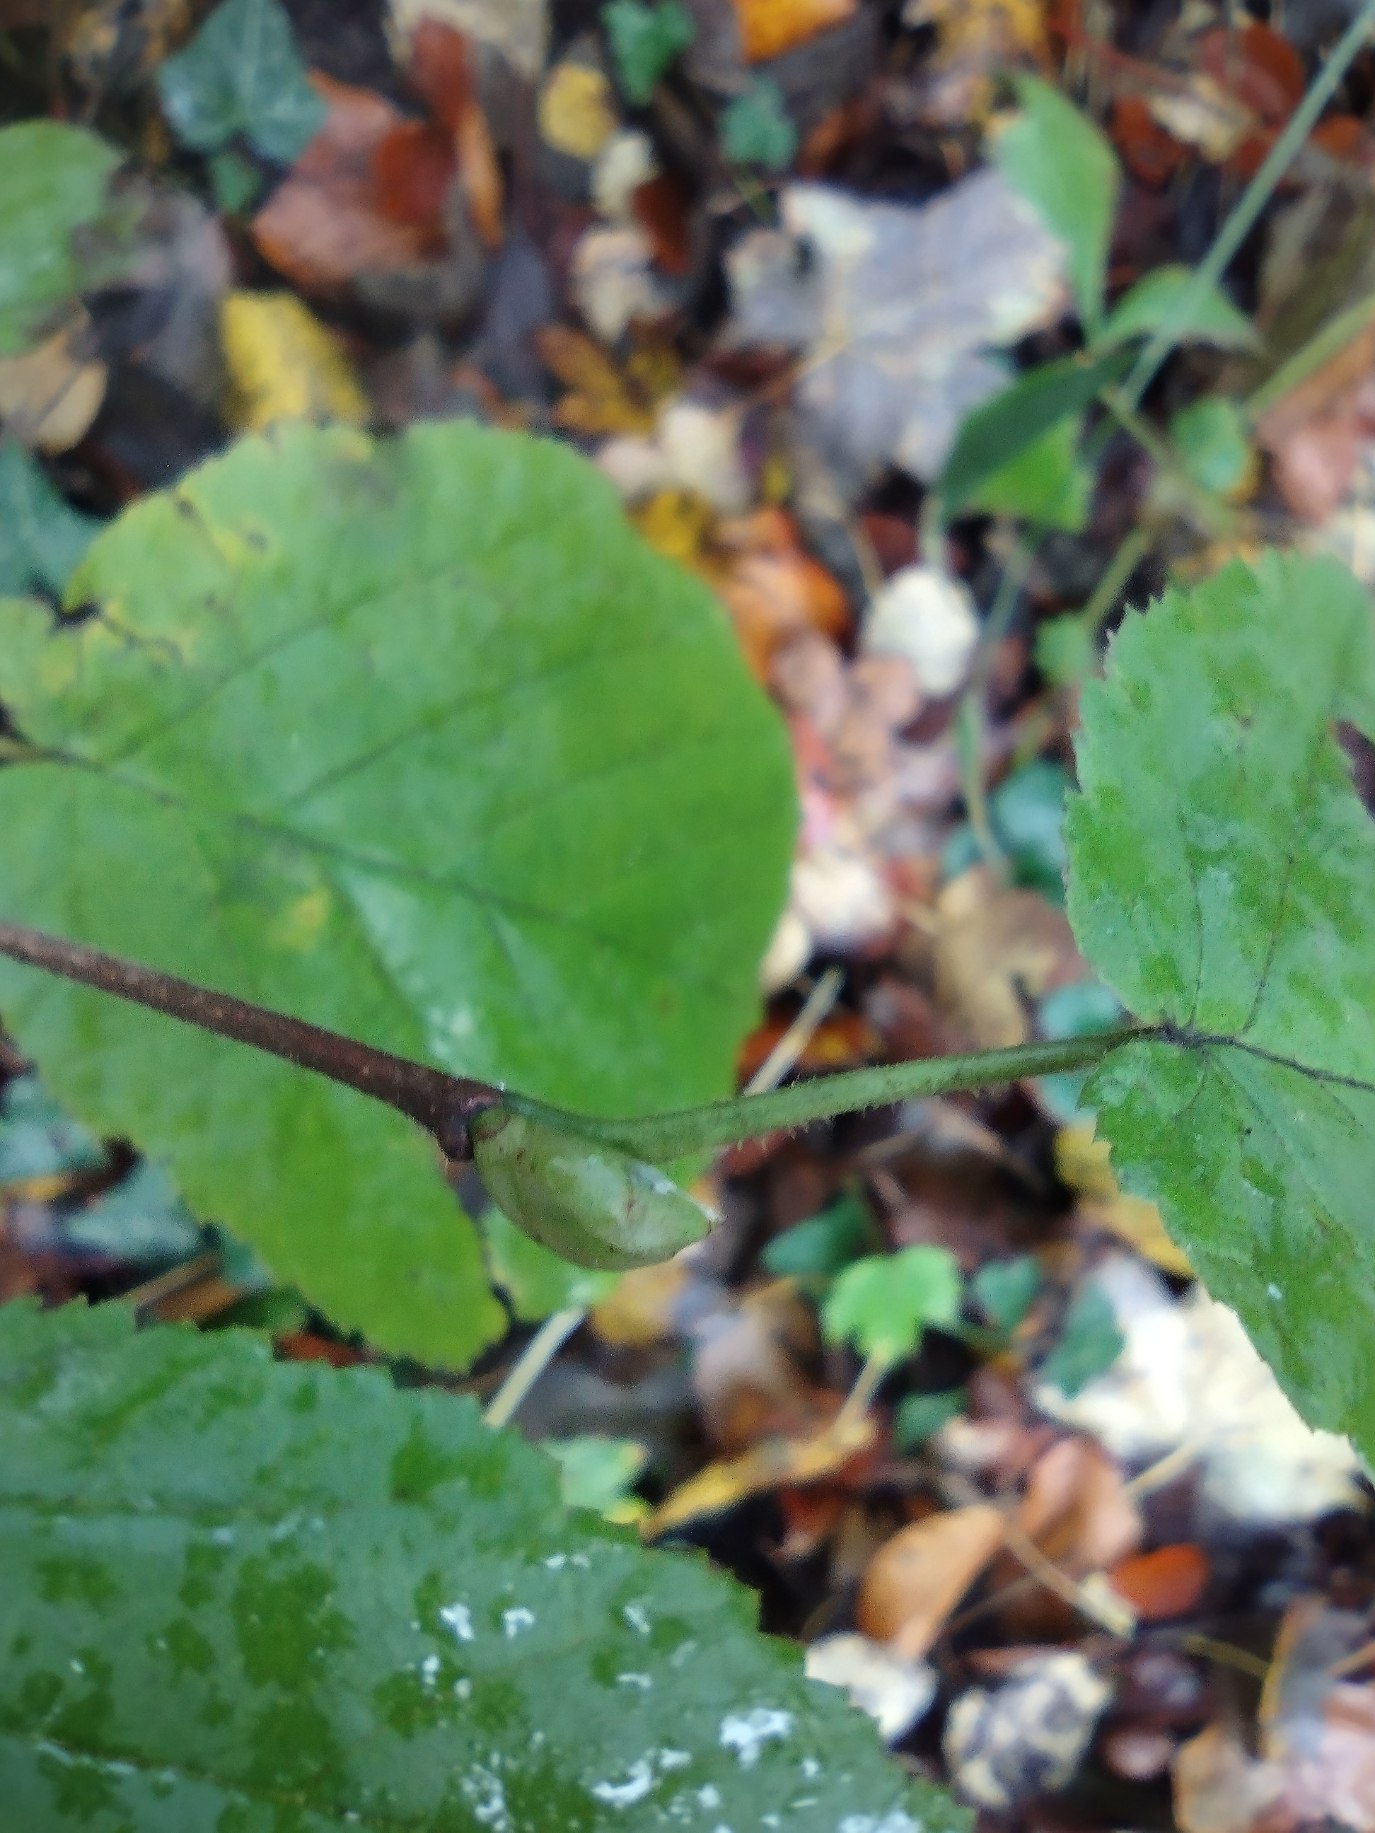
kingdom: Plantae
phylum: Tracheophyta
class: Magnoliopsida
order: Fagales
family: Betulaceae
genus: Corylus
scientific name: Corylus avellana
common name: Hassel
